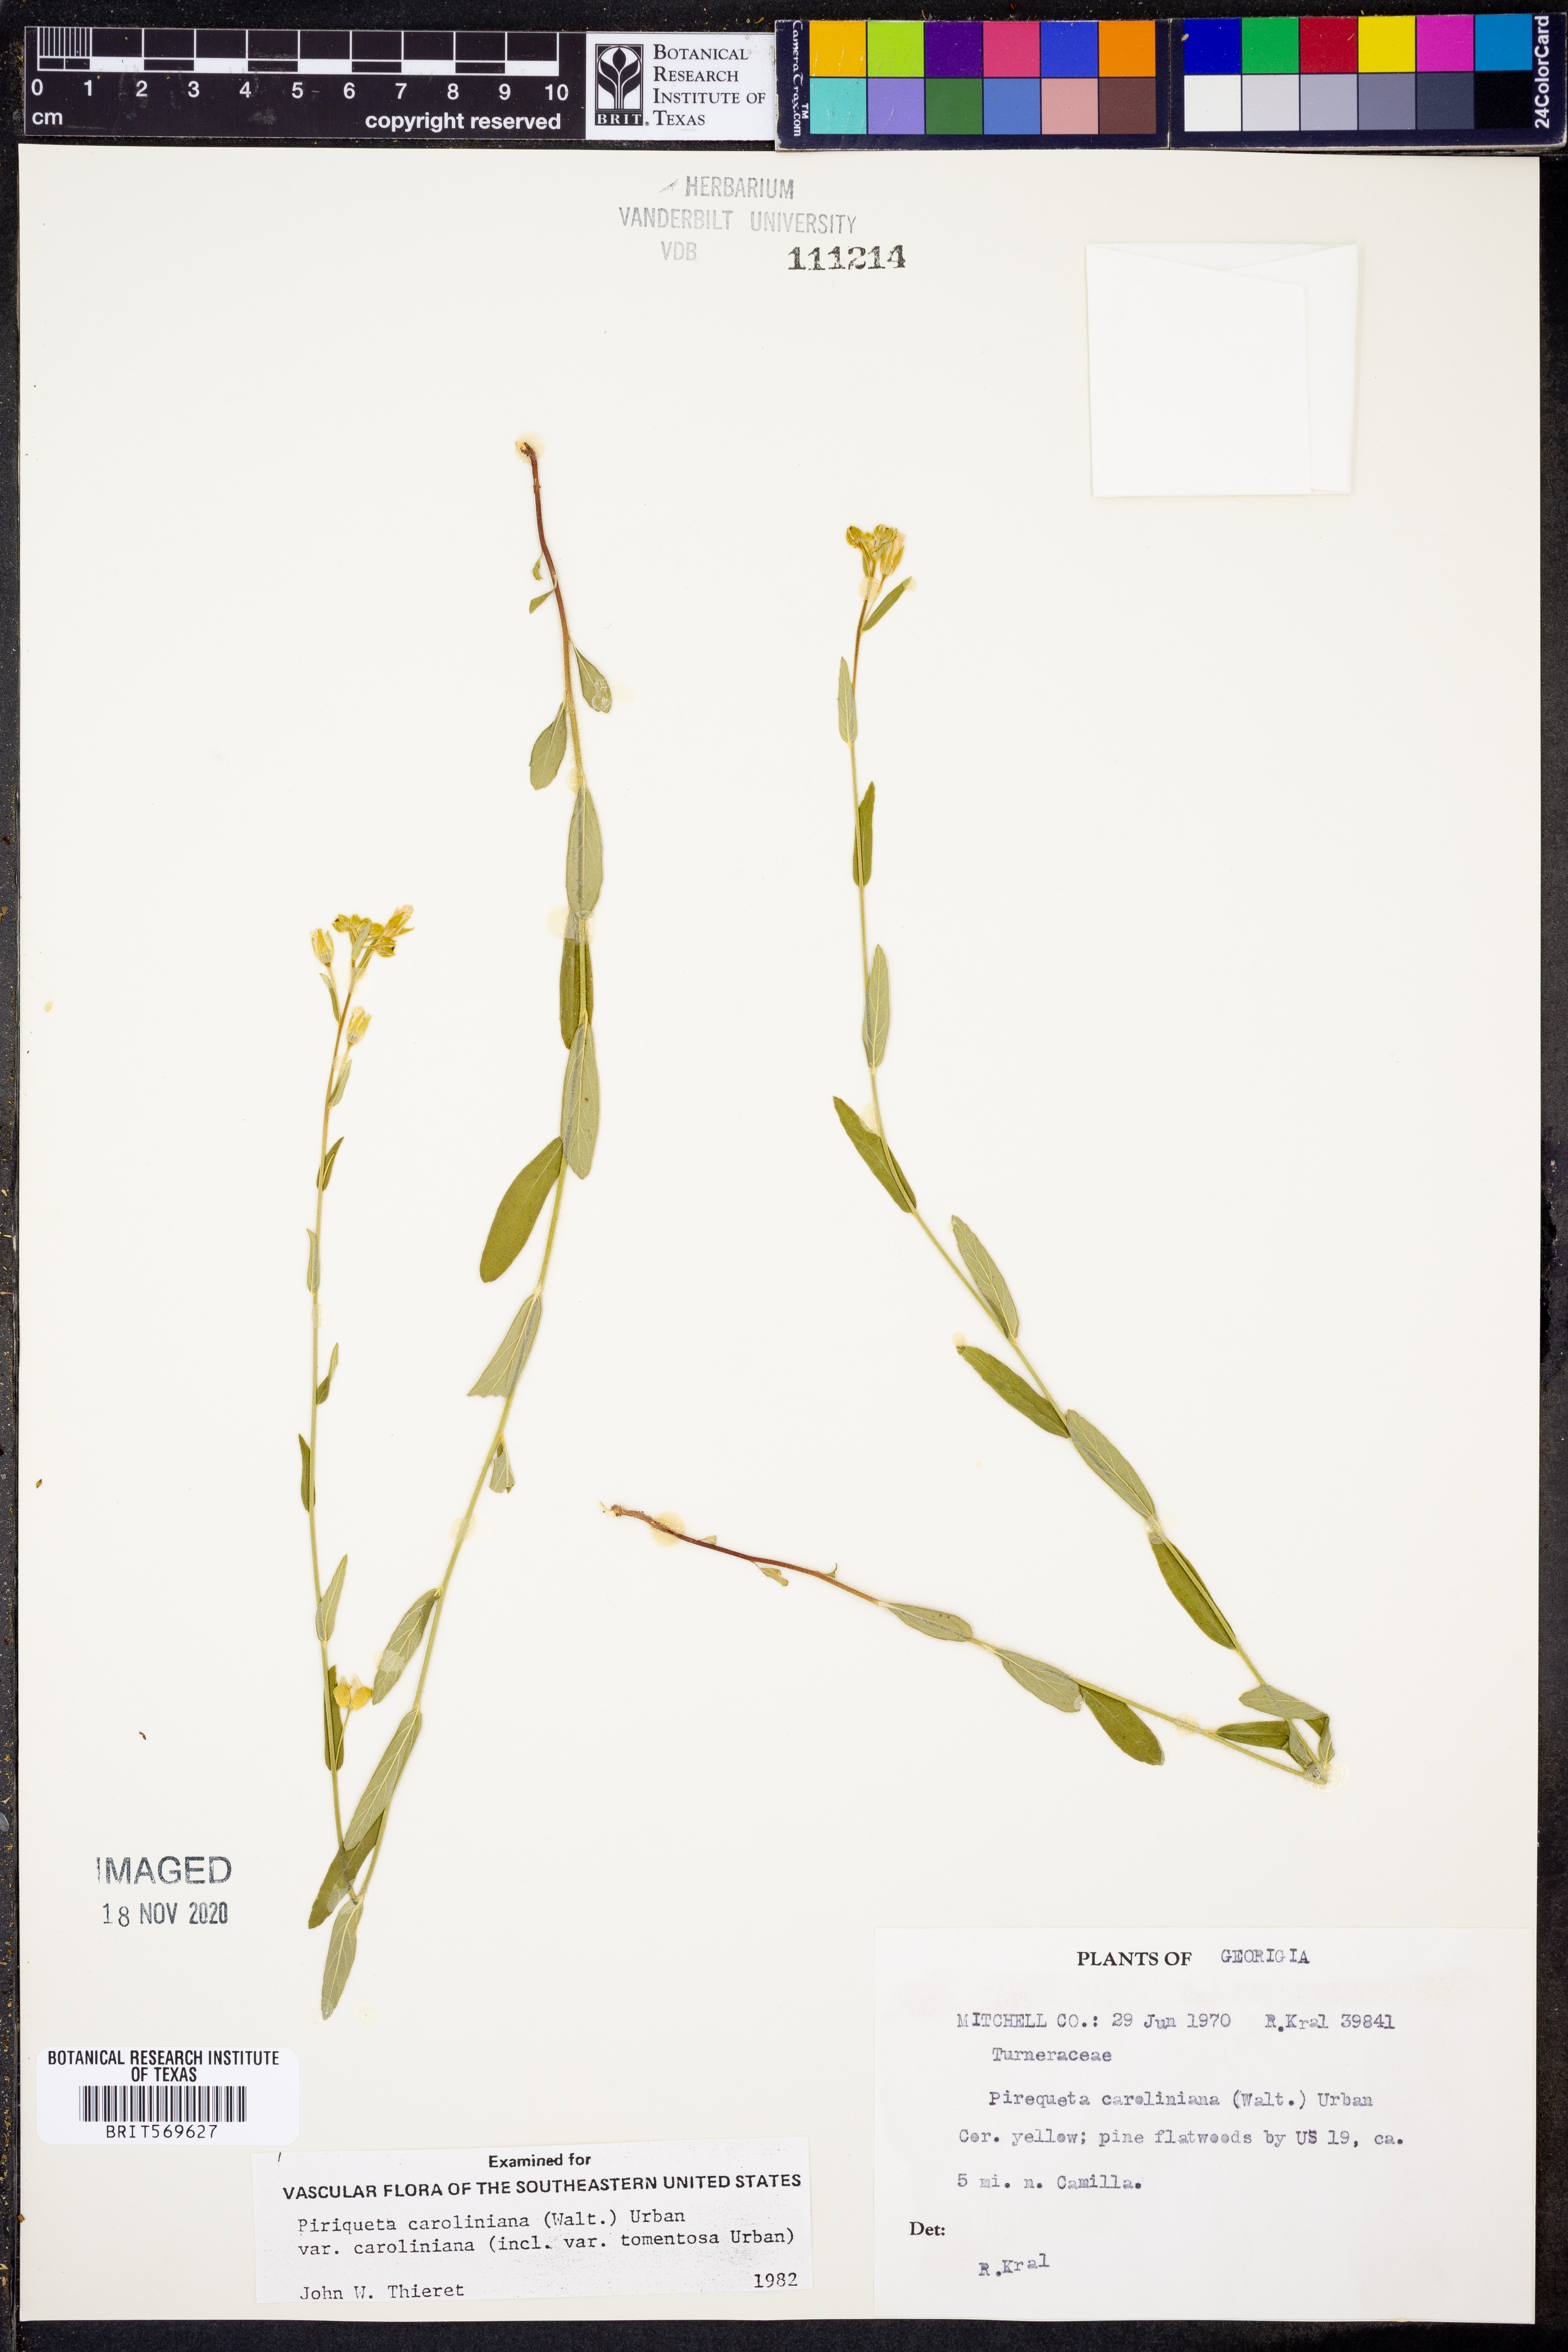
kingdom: Plantae
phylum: Tracheophyta
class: Magnoliopsida
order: Malpighiales
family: Turneraceae
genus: Piriqueta
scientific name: Piriqueta cistoides
